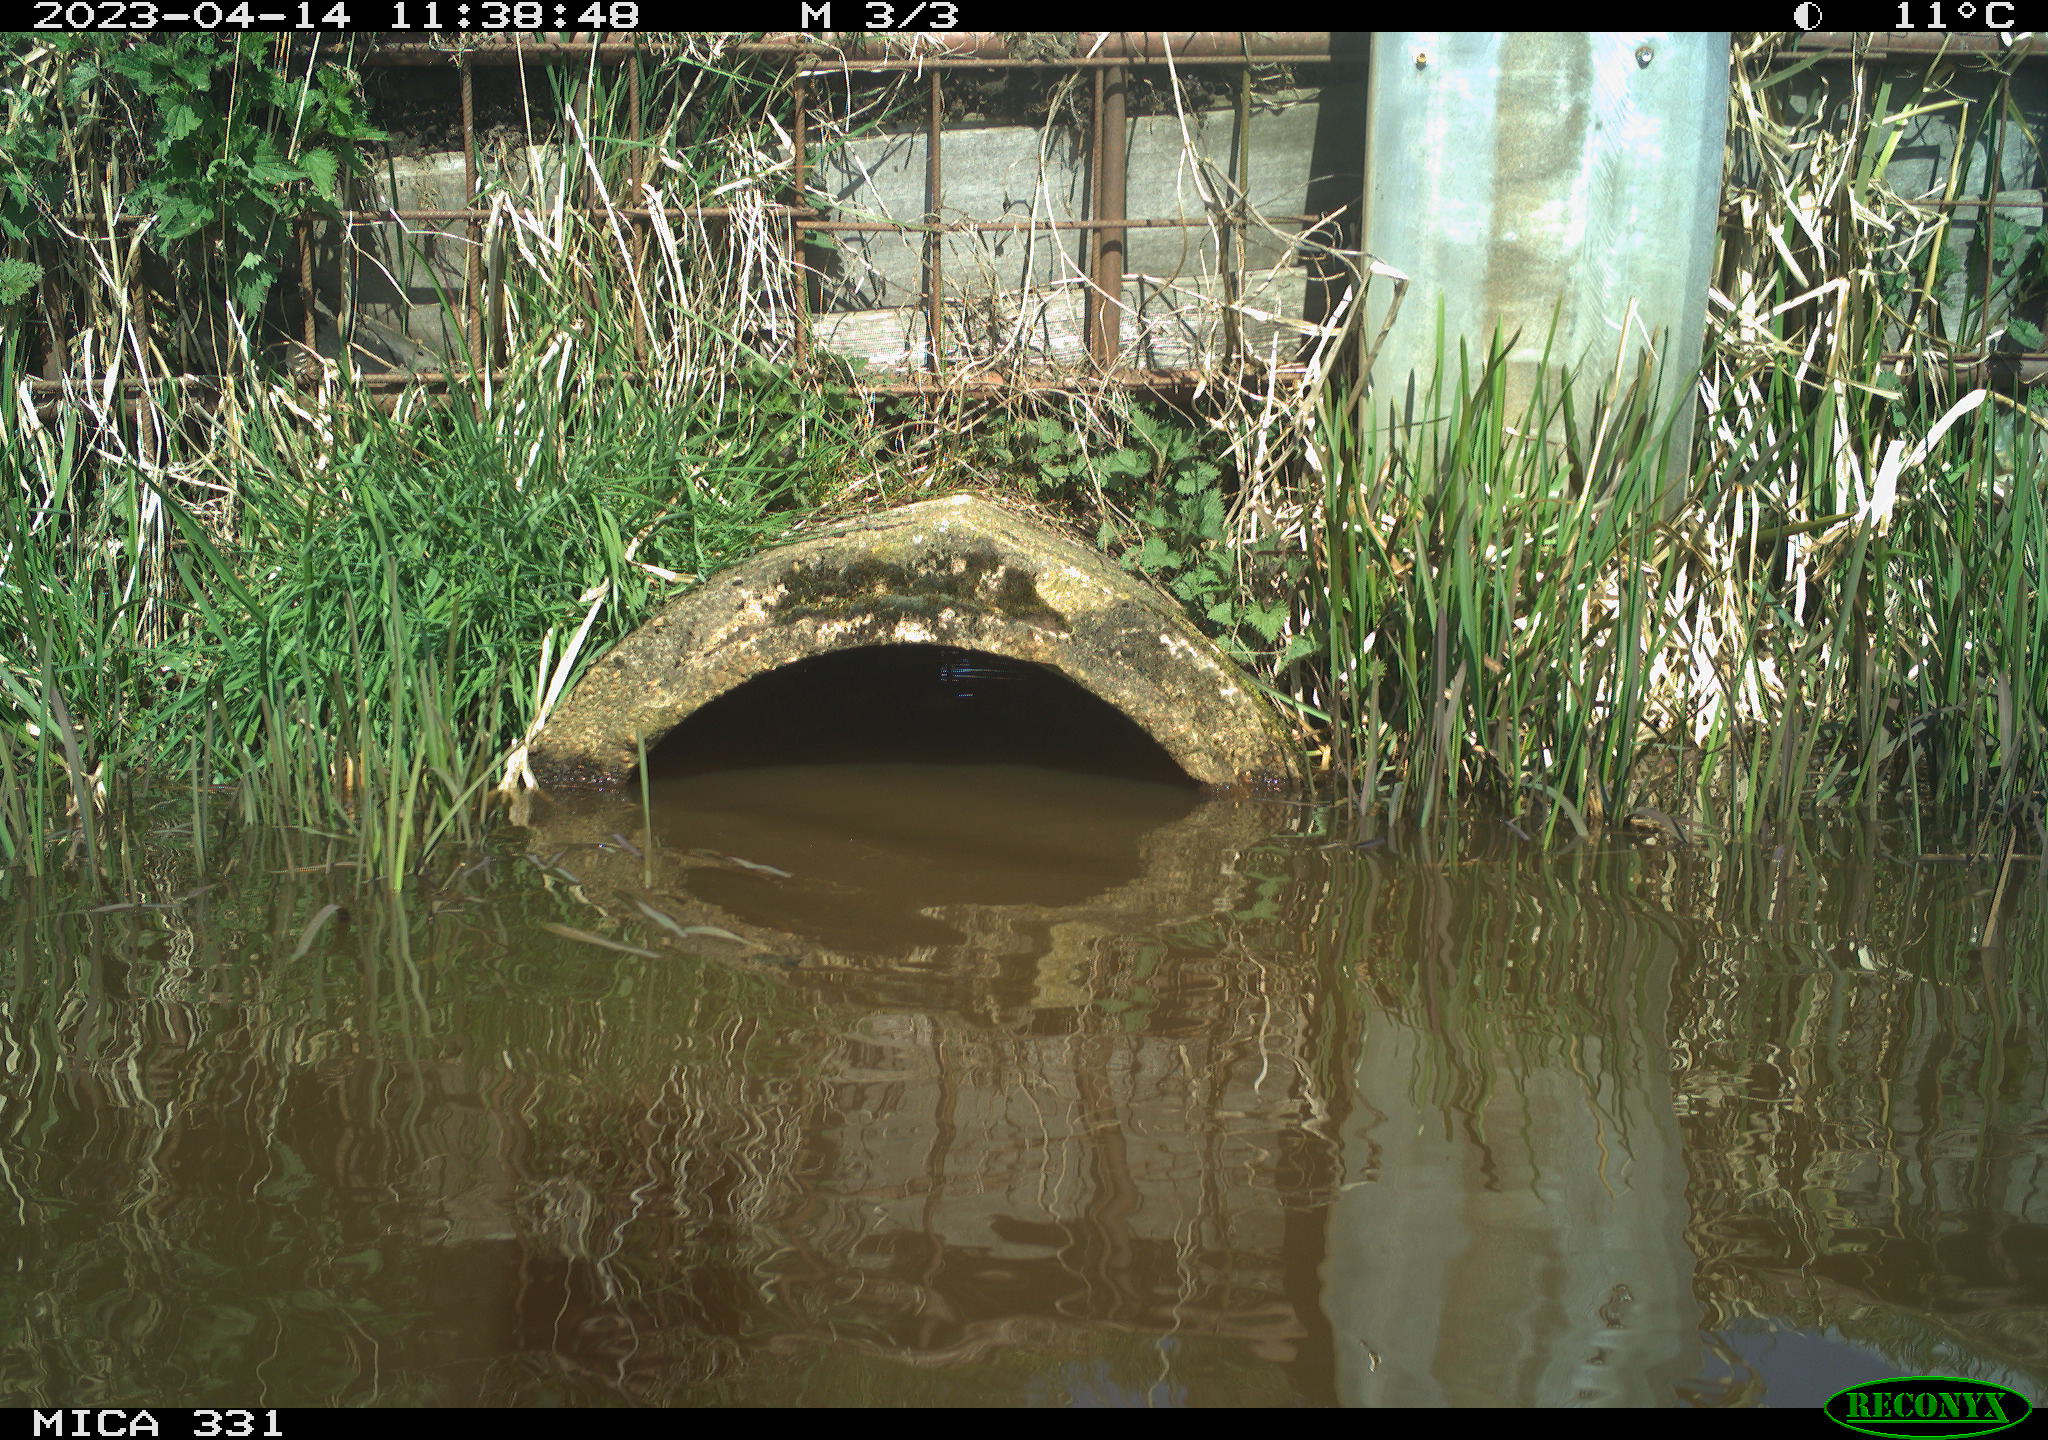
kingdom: Animalia
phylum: Chordata
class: Aves
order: Gruiformes
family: Rallidae
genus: Fulica
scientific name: Fulica atra
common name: Eurasian coot
